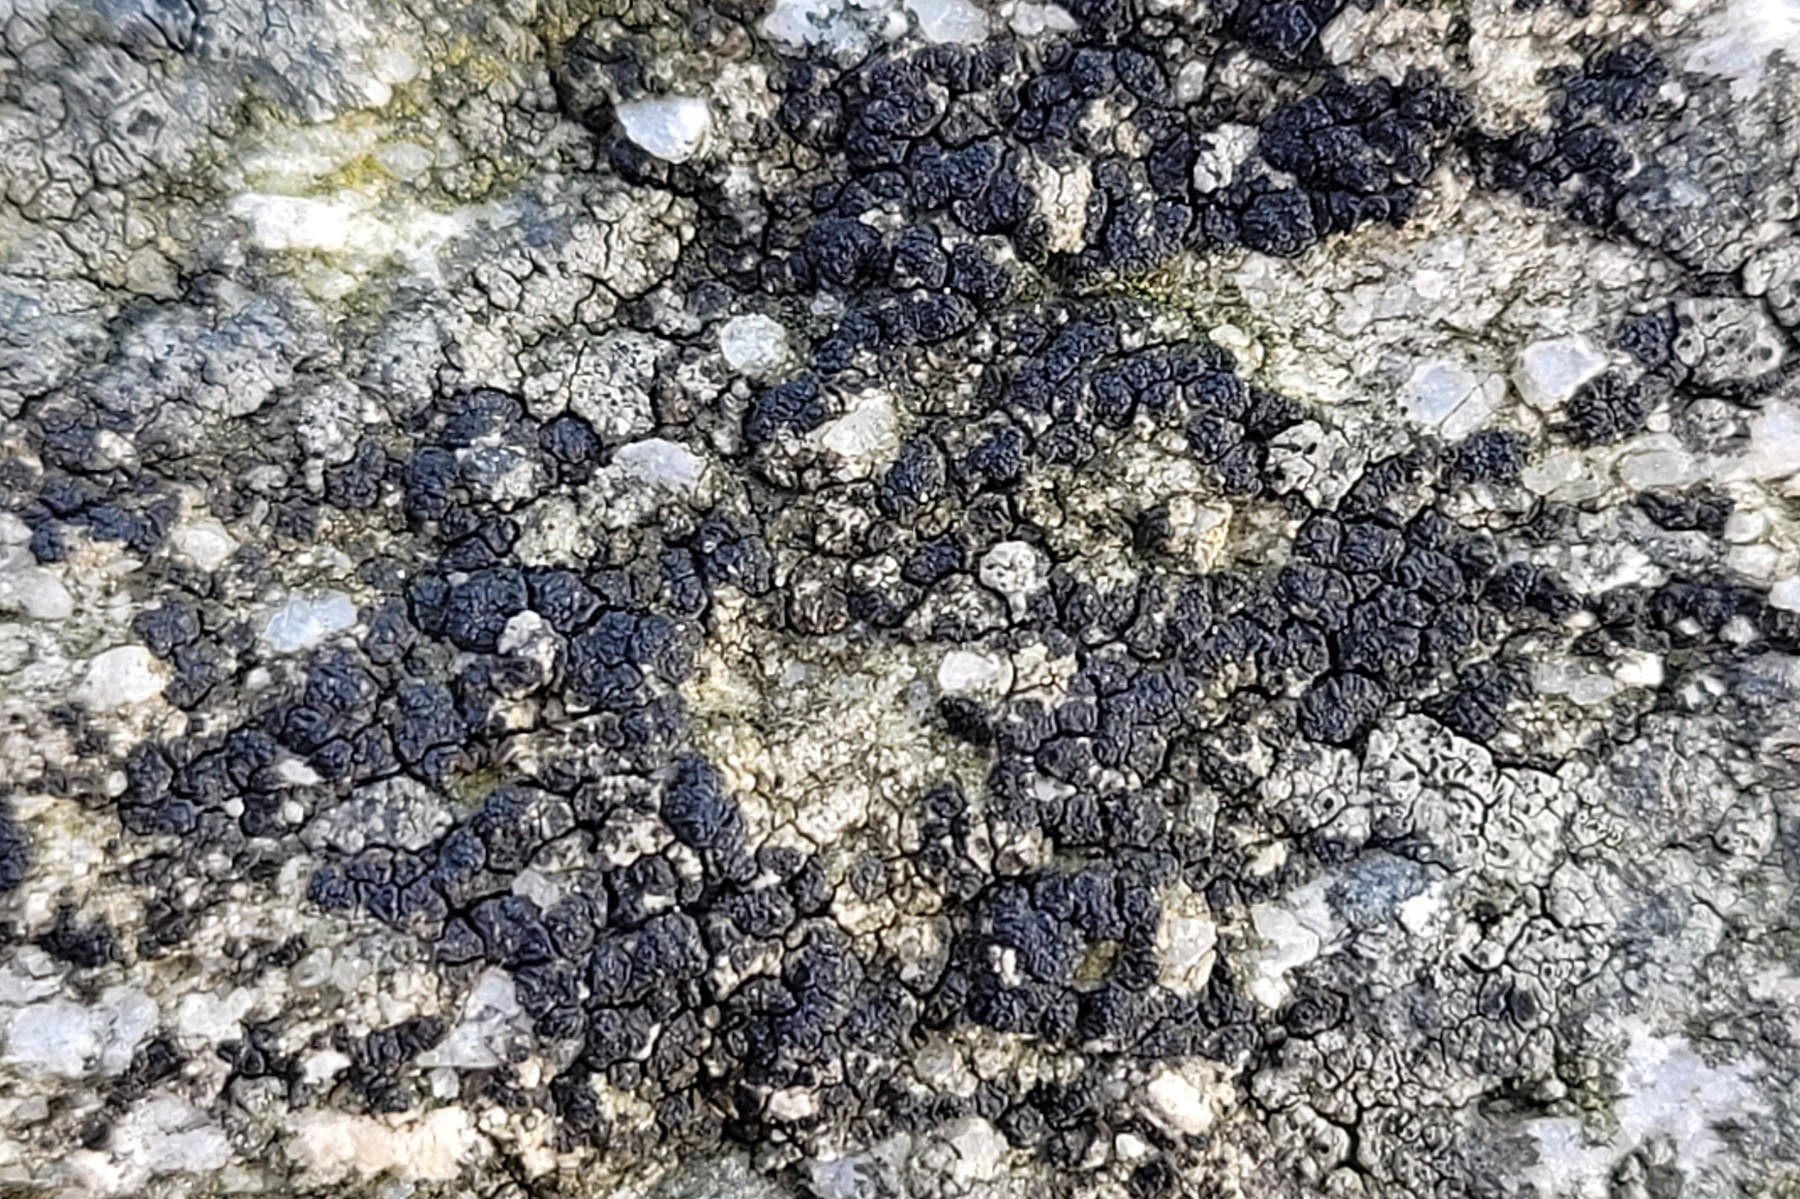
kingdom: Fungi
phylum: Ascomycota
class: Lecanoromycetes
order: Acarosporales
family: Acarosporaceae
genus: Acarospora
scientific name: Acarospora privigna
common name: sort foldekantlav
